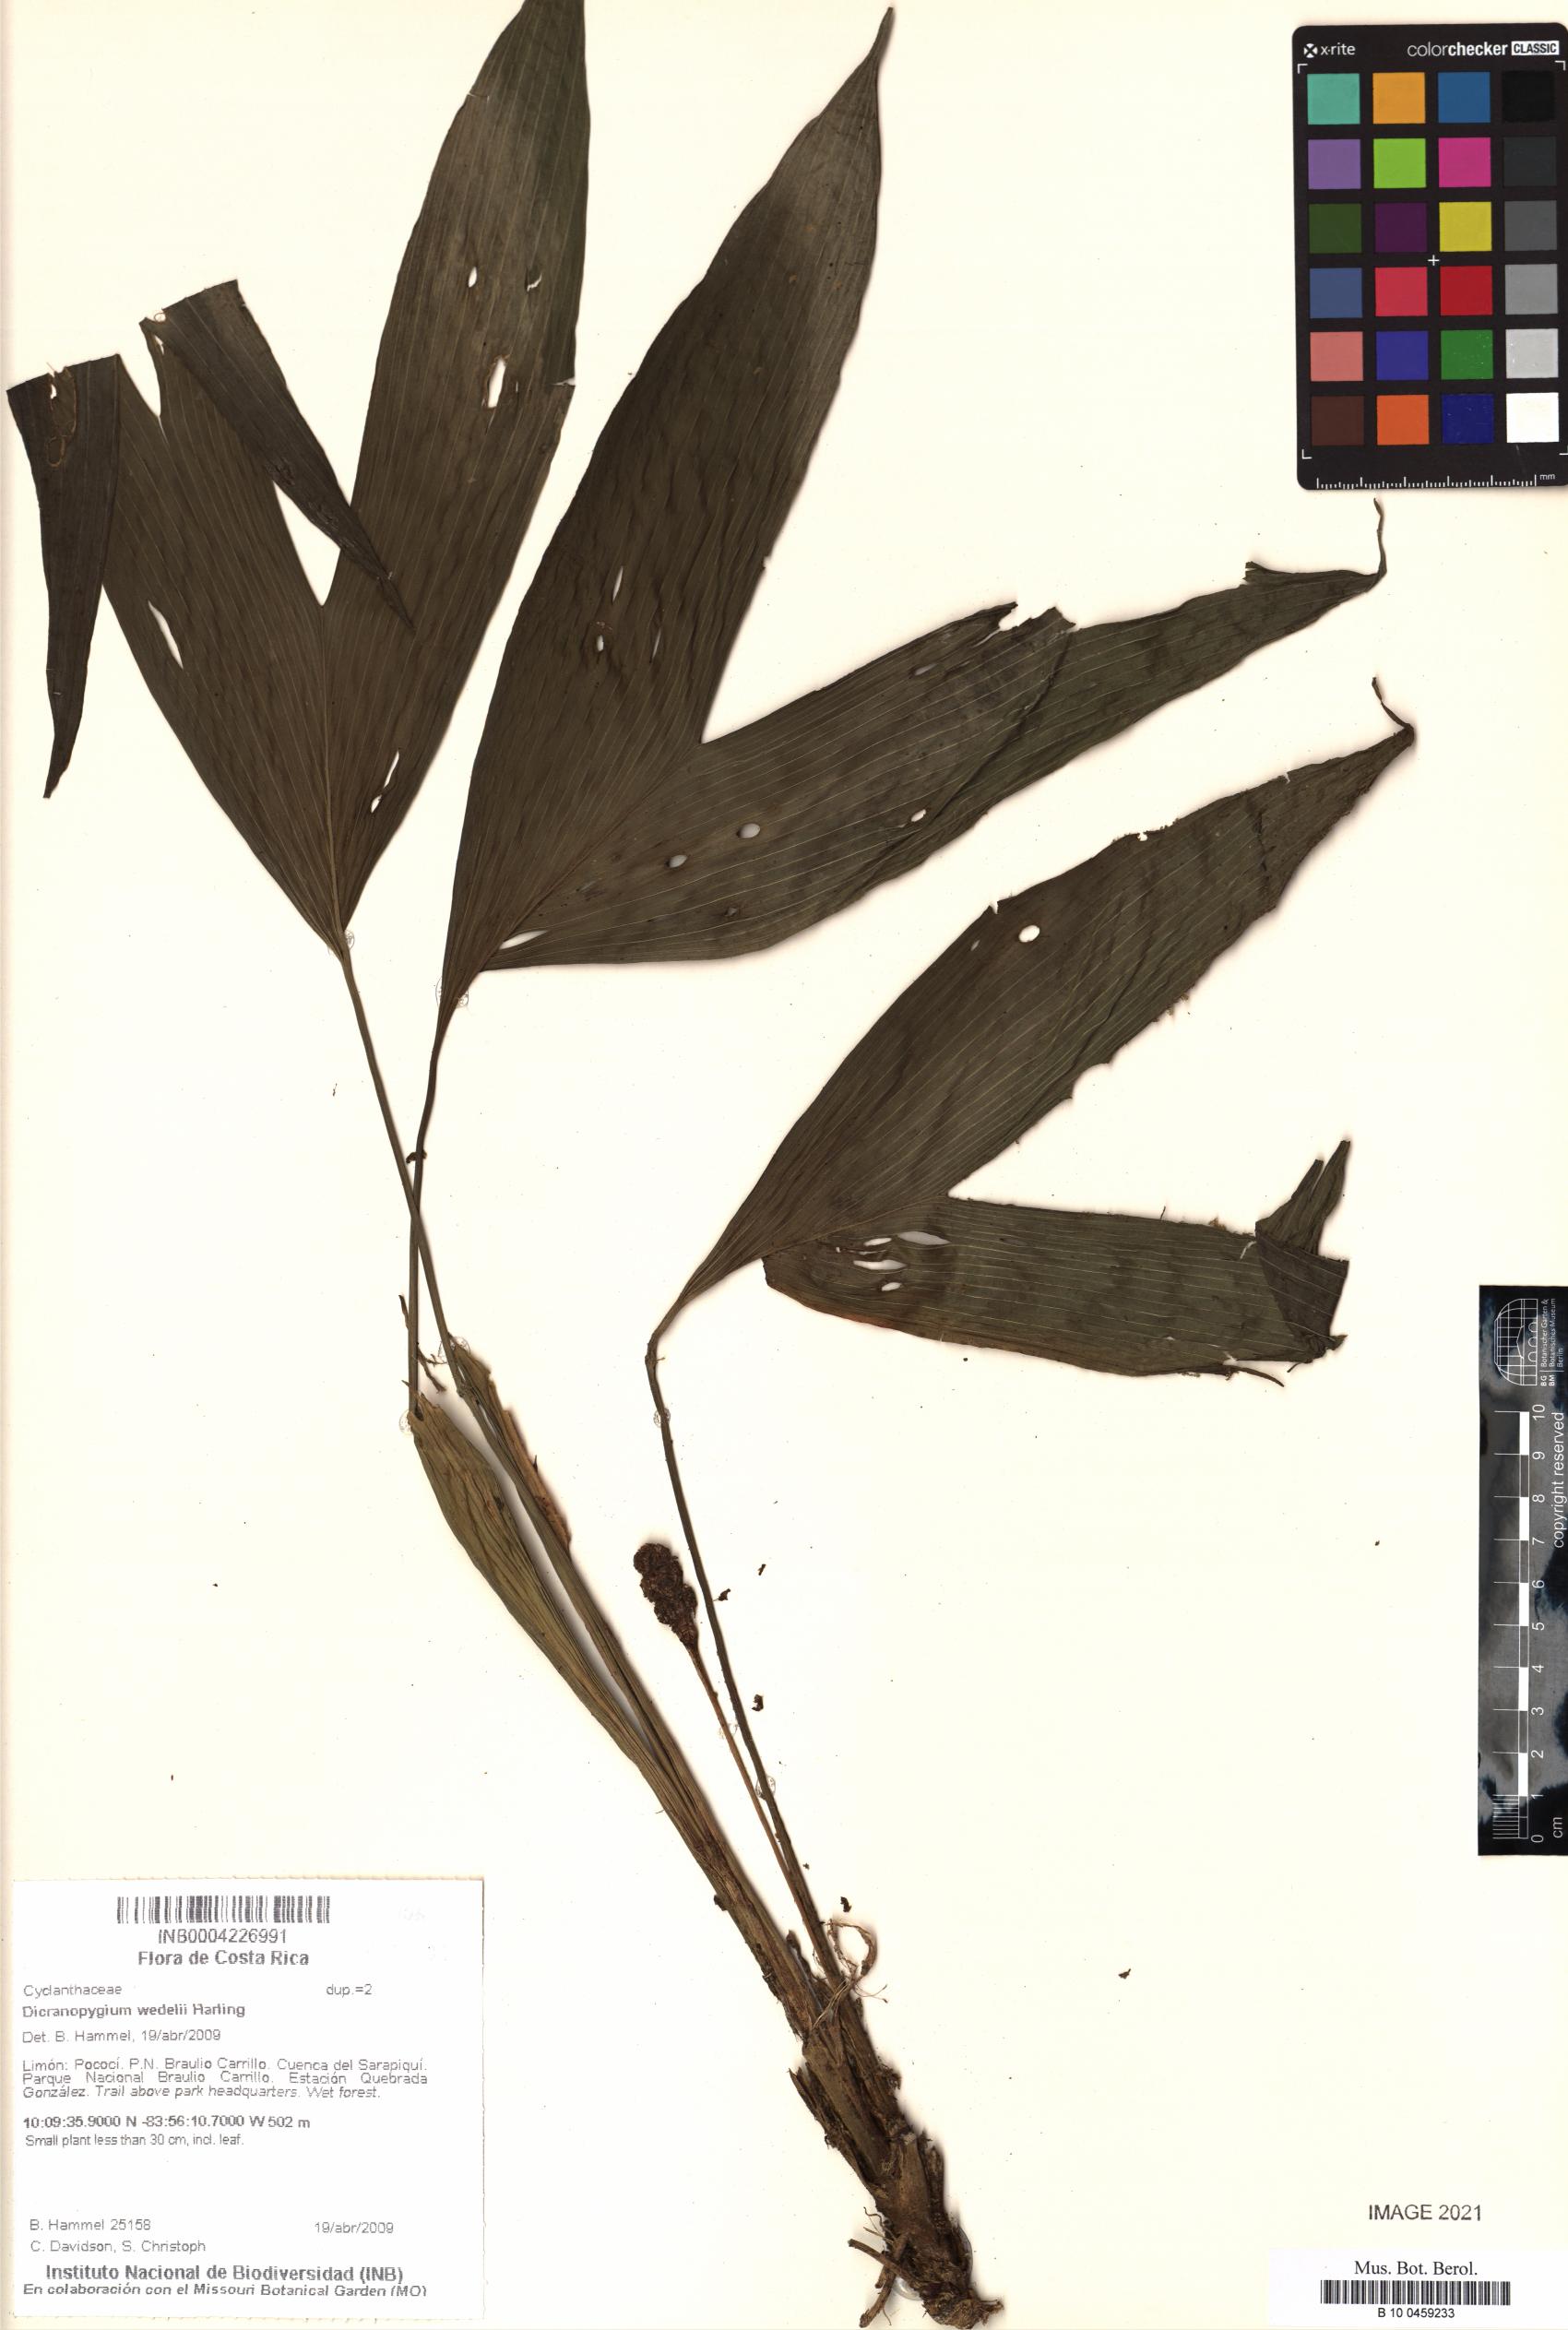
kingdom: Plantae
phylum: Tracheophyta
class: Liliopsida
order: Pandanales
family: Cyclanthaceae
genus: Dicranopygium
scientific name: Dicranopygium wedelii
